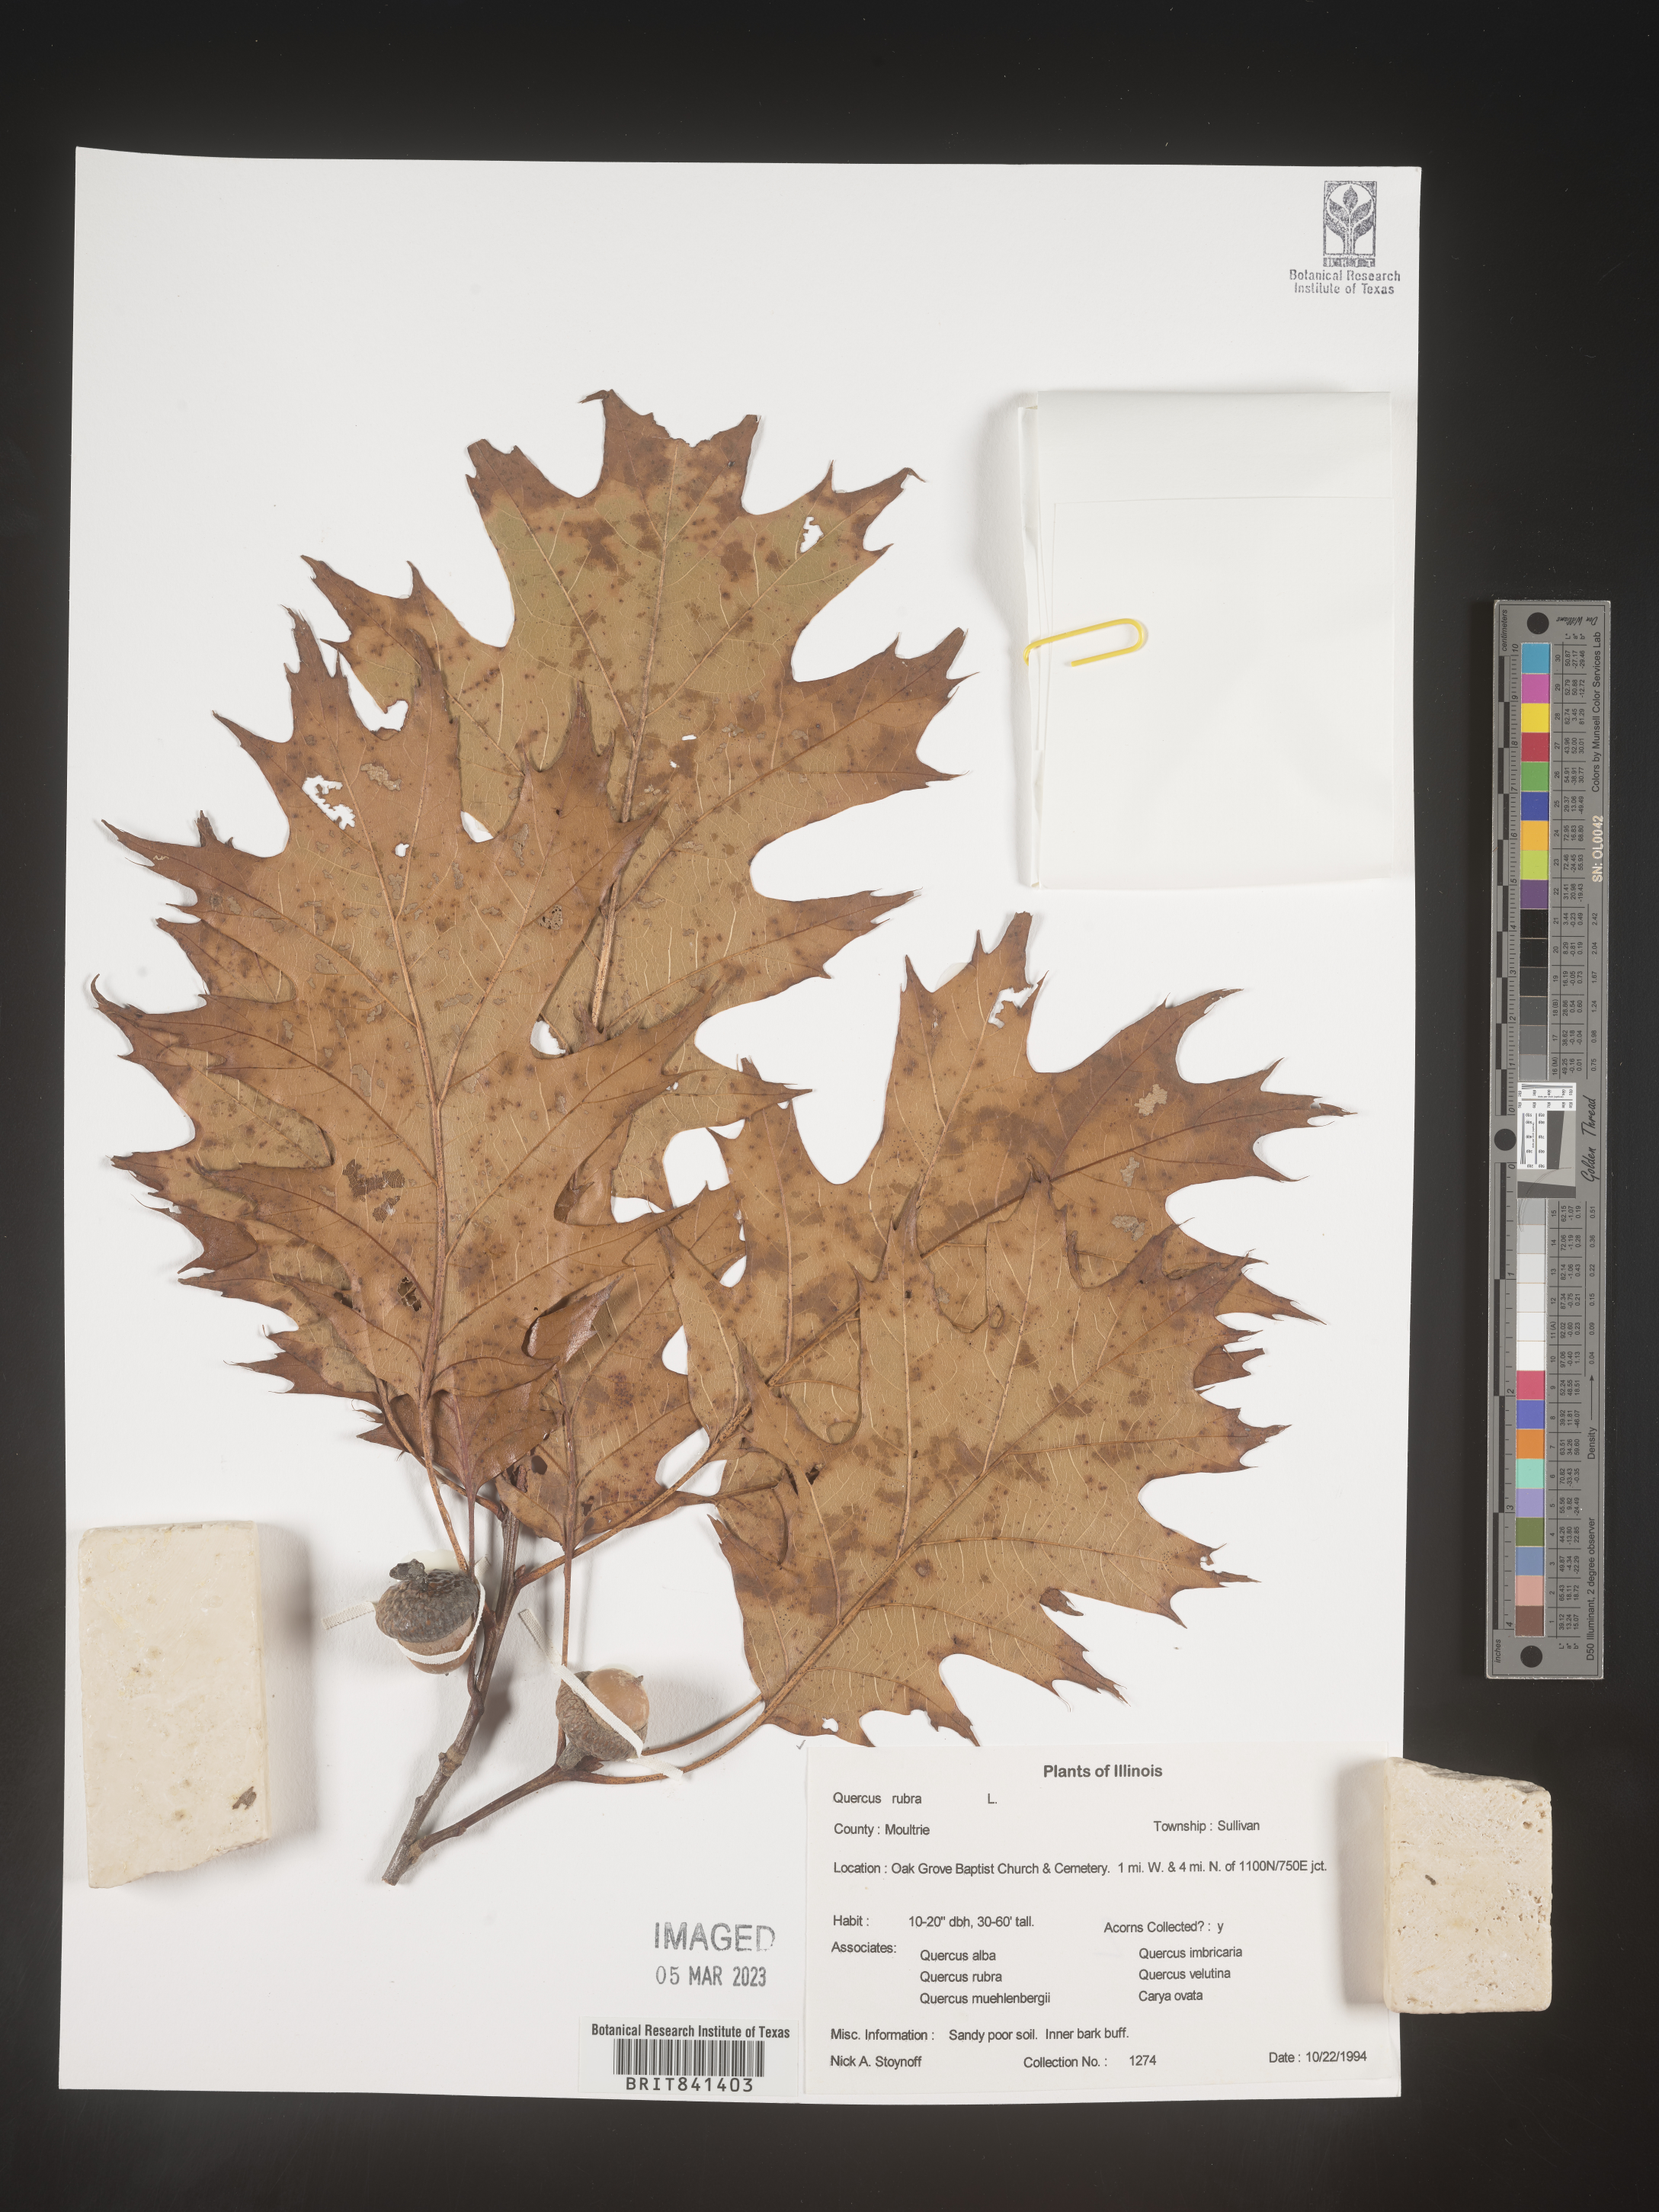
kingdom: Plantae
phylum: Tracheophyta
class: Magnoliopsida
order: Fagales
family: Fagaceae
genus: Quercus
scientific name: Quercus rubra
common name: Red oak
